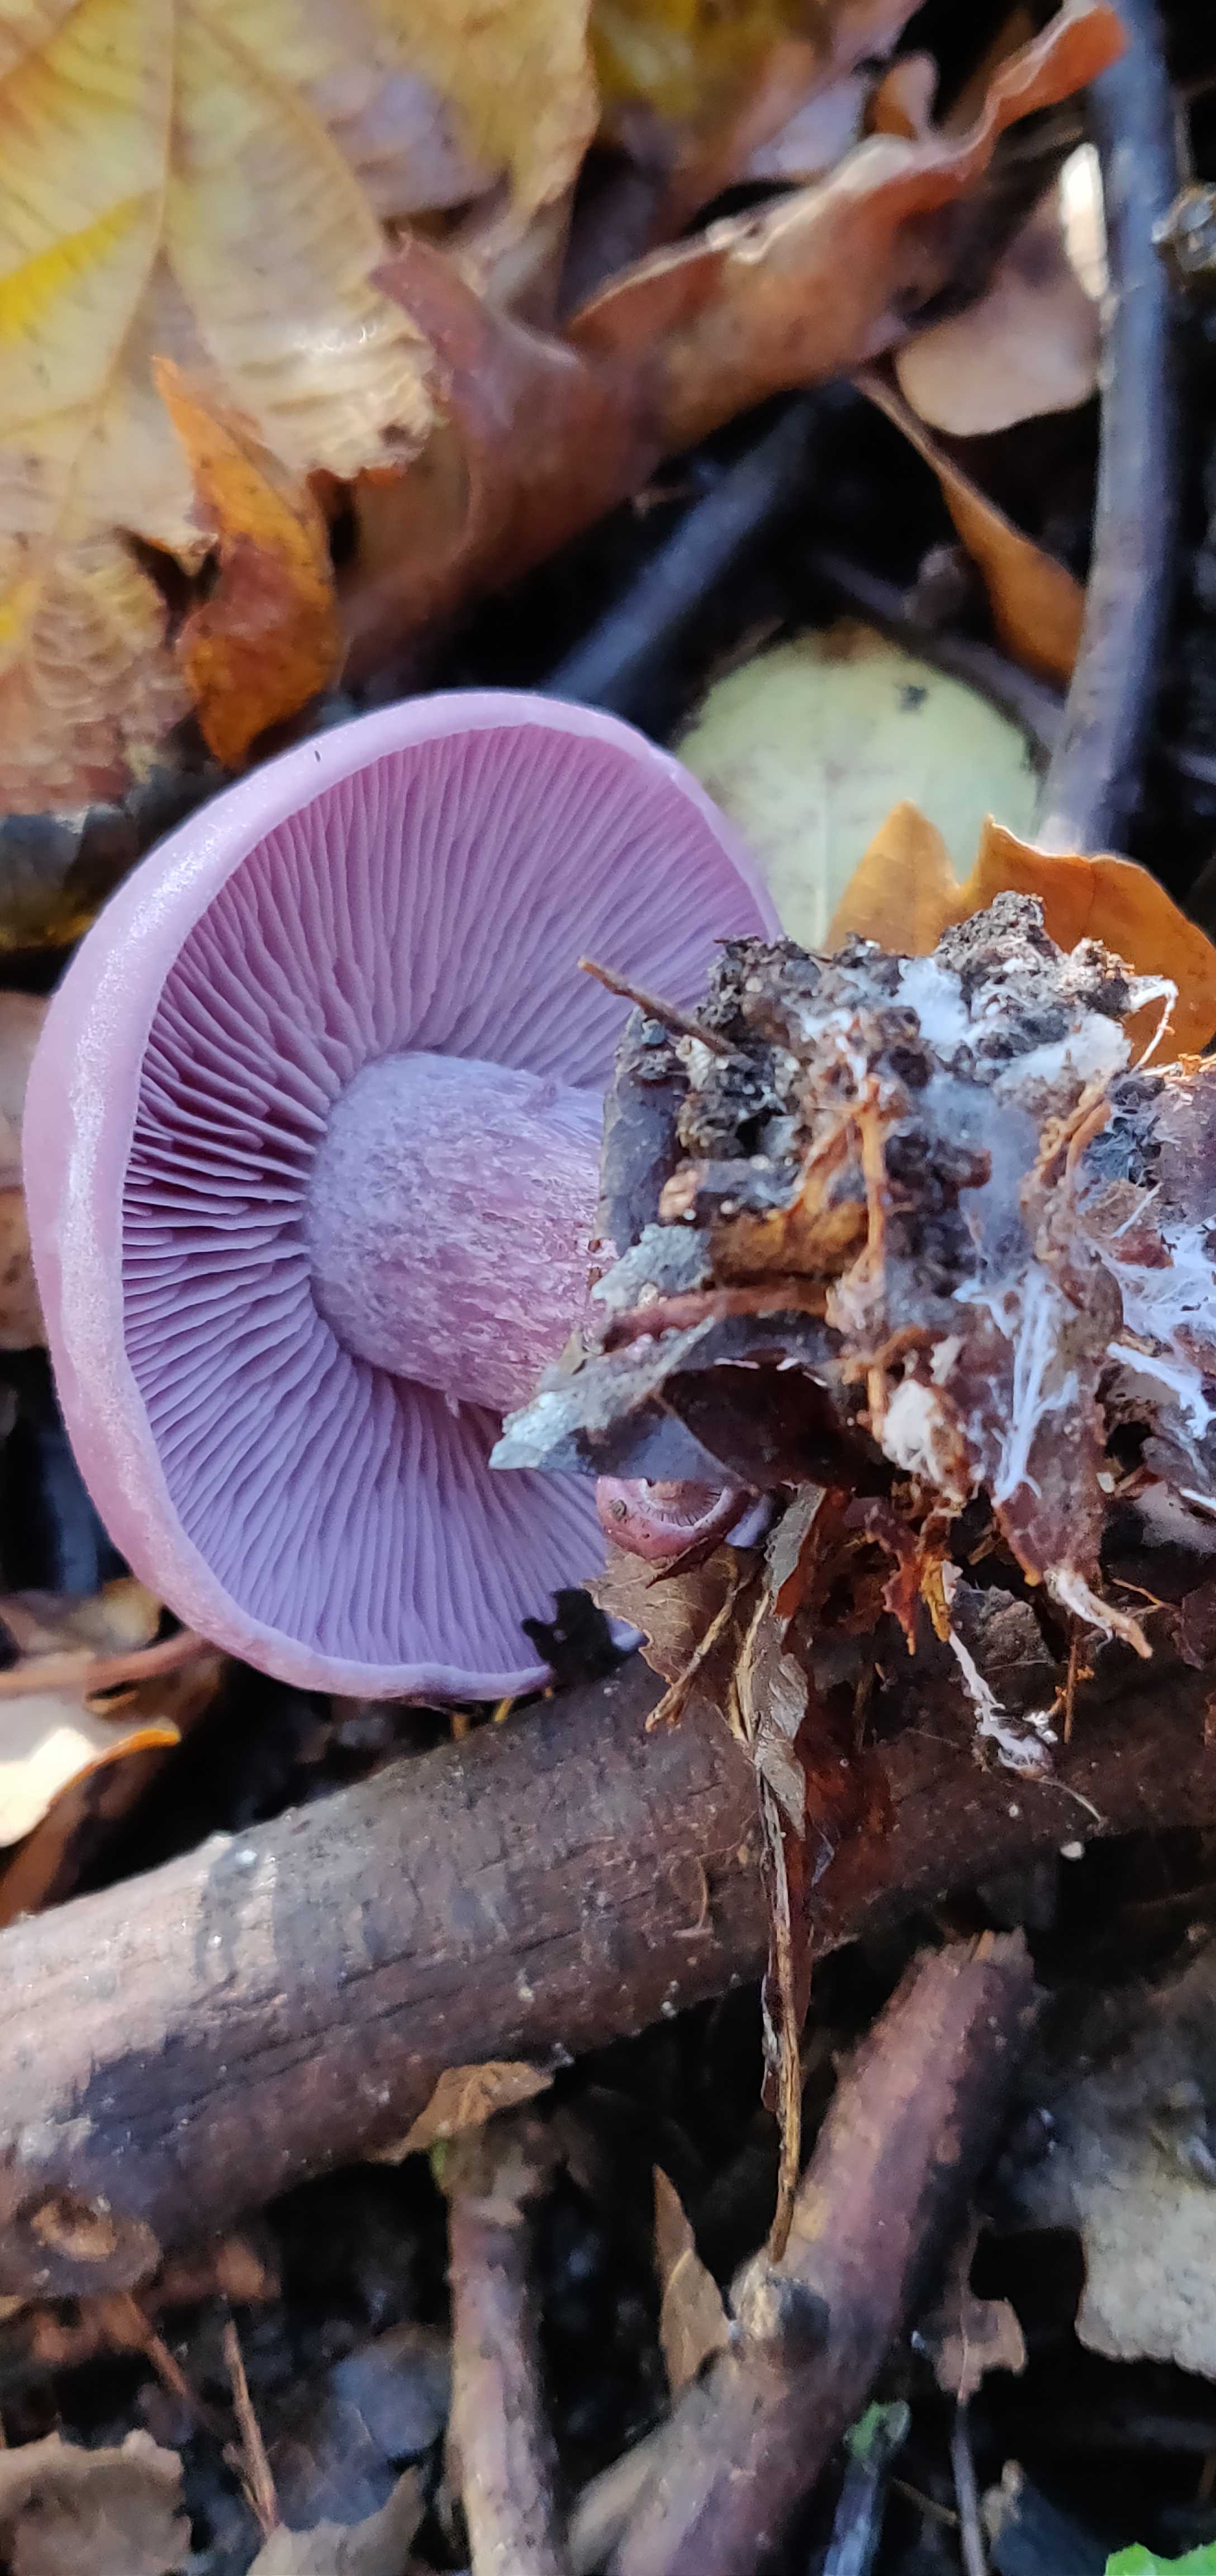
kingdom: Fungi
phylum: Basidiomycota
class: Agaricomycetes
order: Agaricales
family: Tricholomataceae
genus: Lepista
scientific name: Lepista nuda
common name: violet hekseringshat
